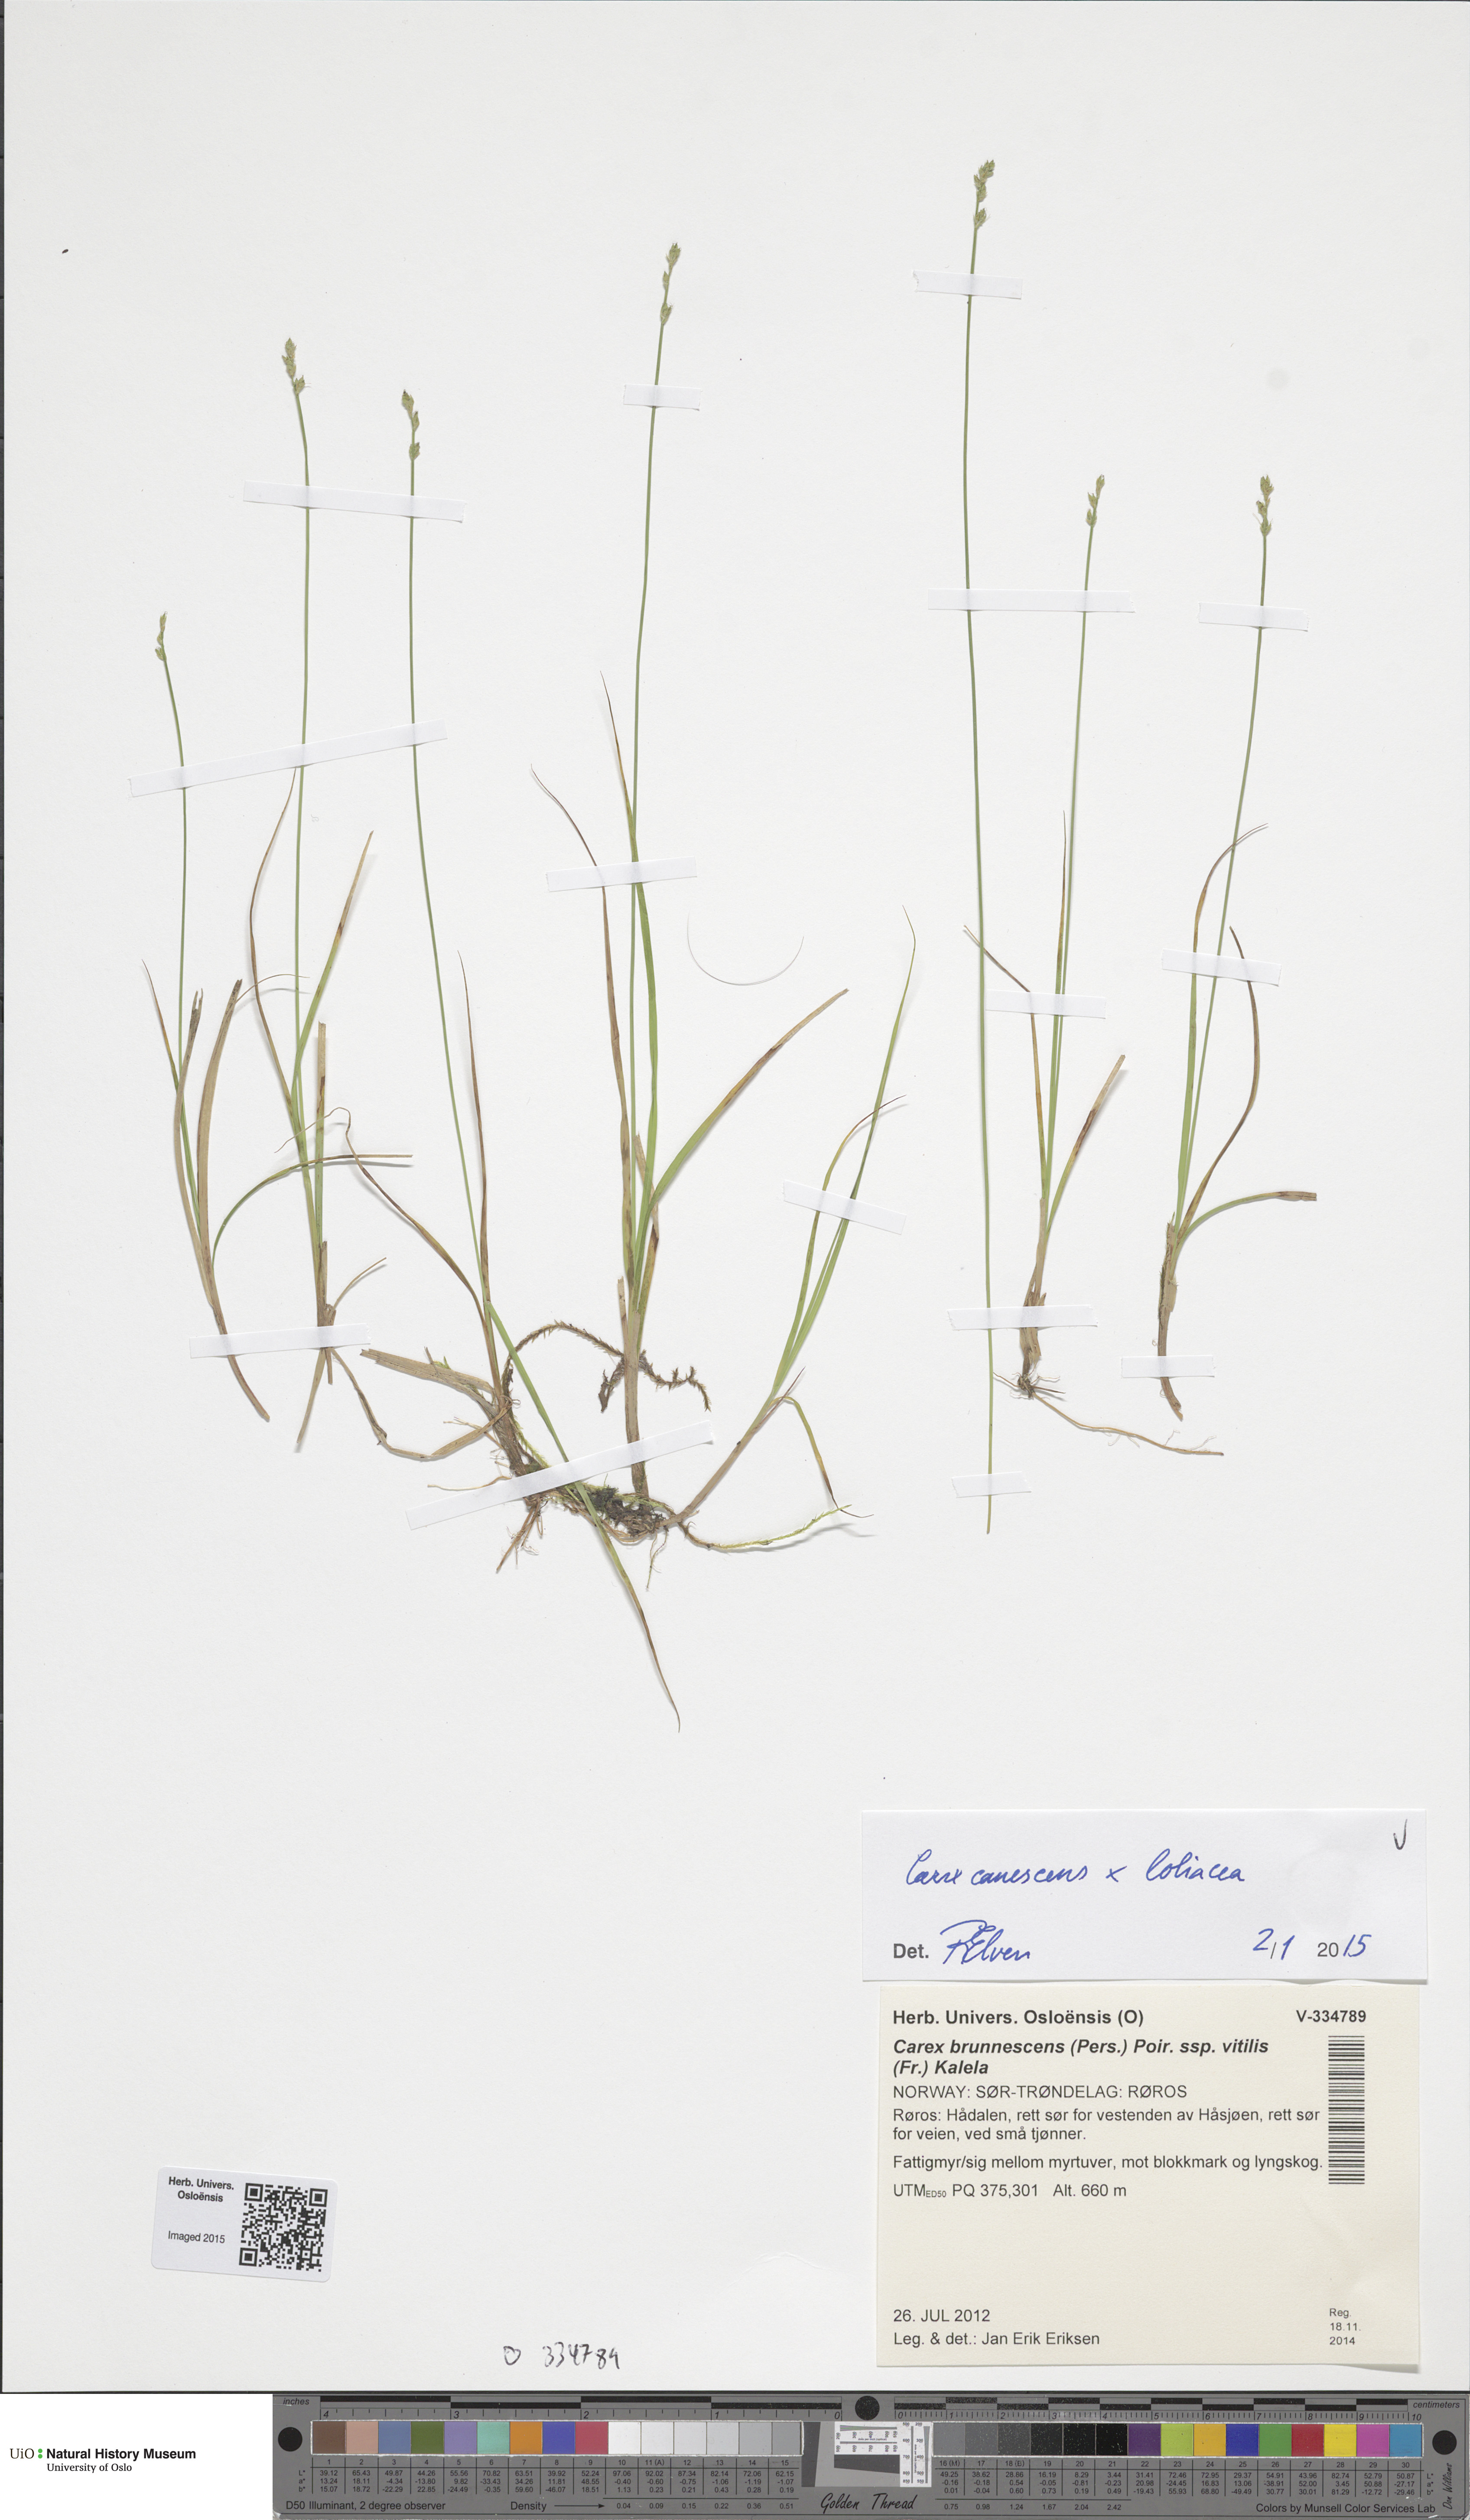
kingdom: Plantae
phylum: Tracheophyta
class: Liliopsida
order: Poales
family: Cyperaceae
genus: Carex
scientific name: Carex
